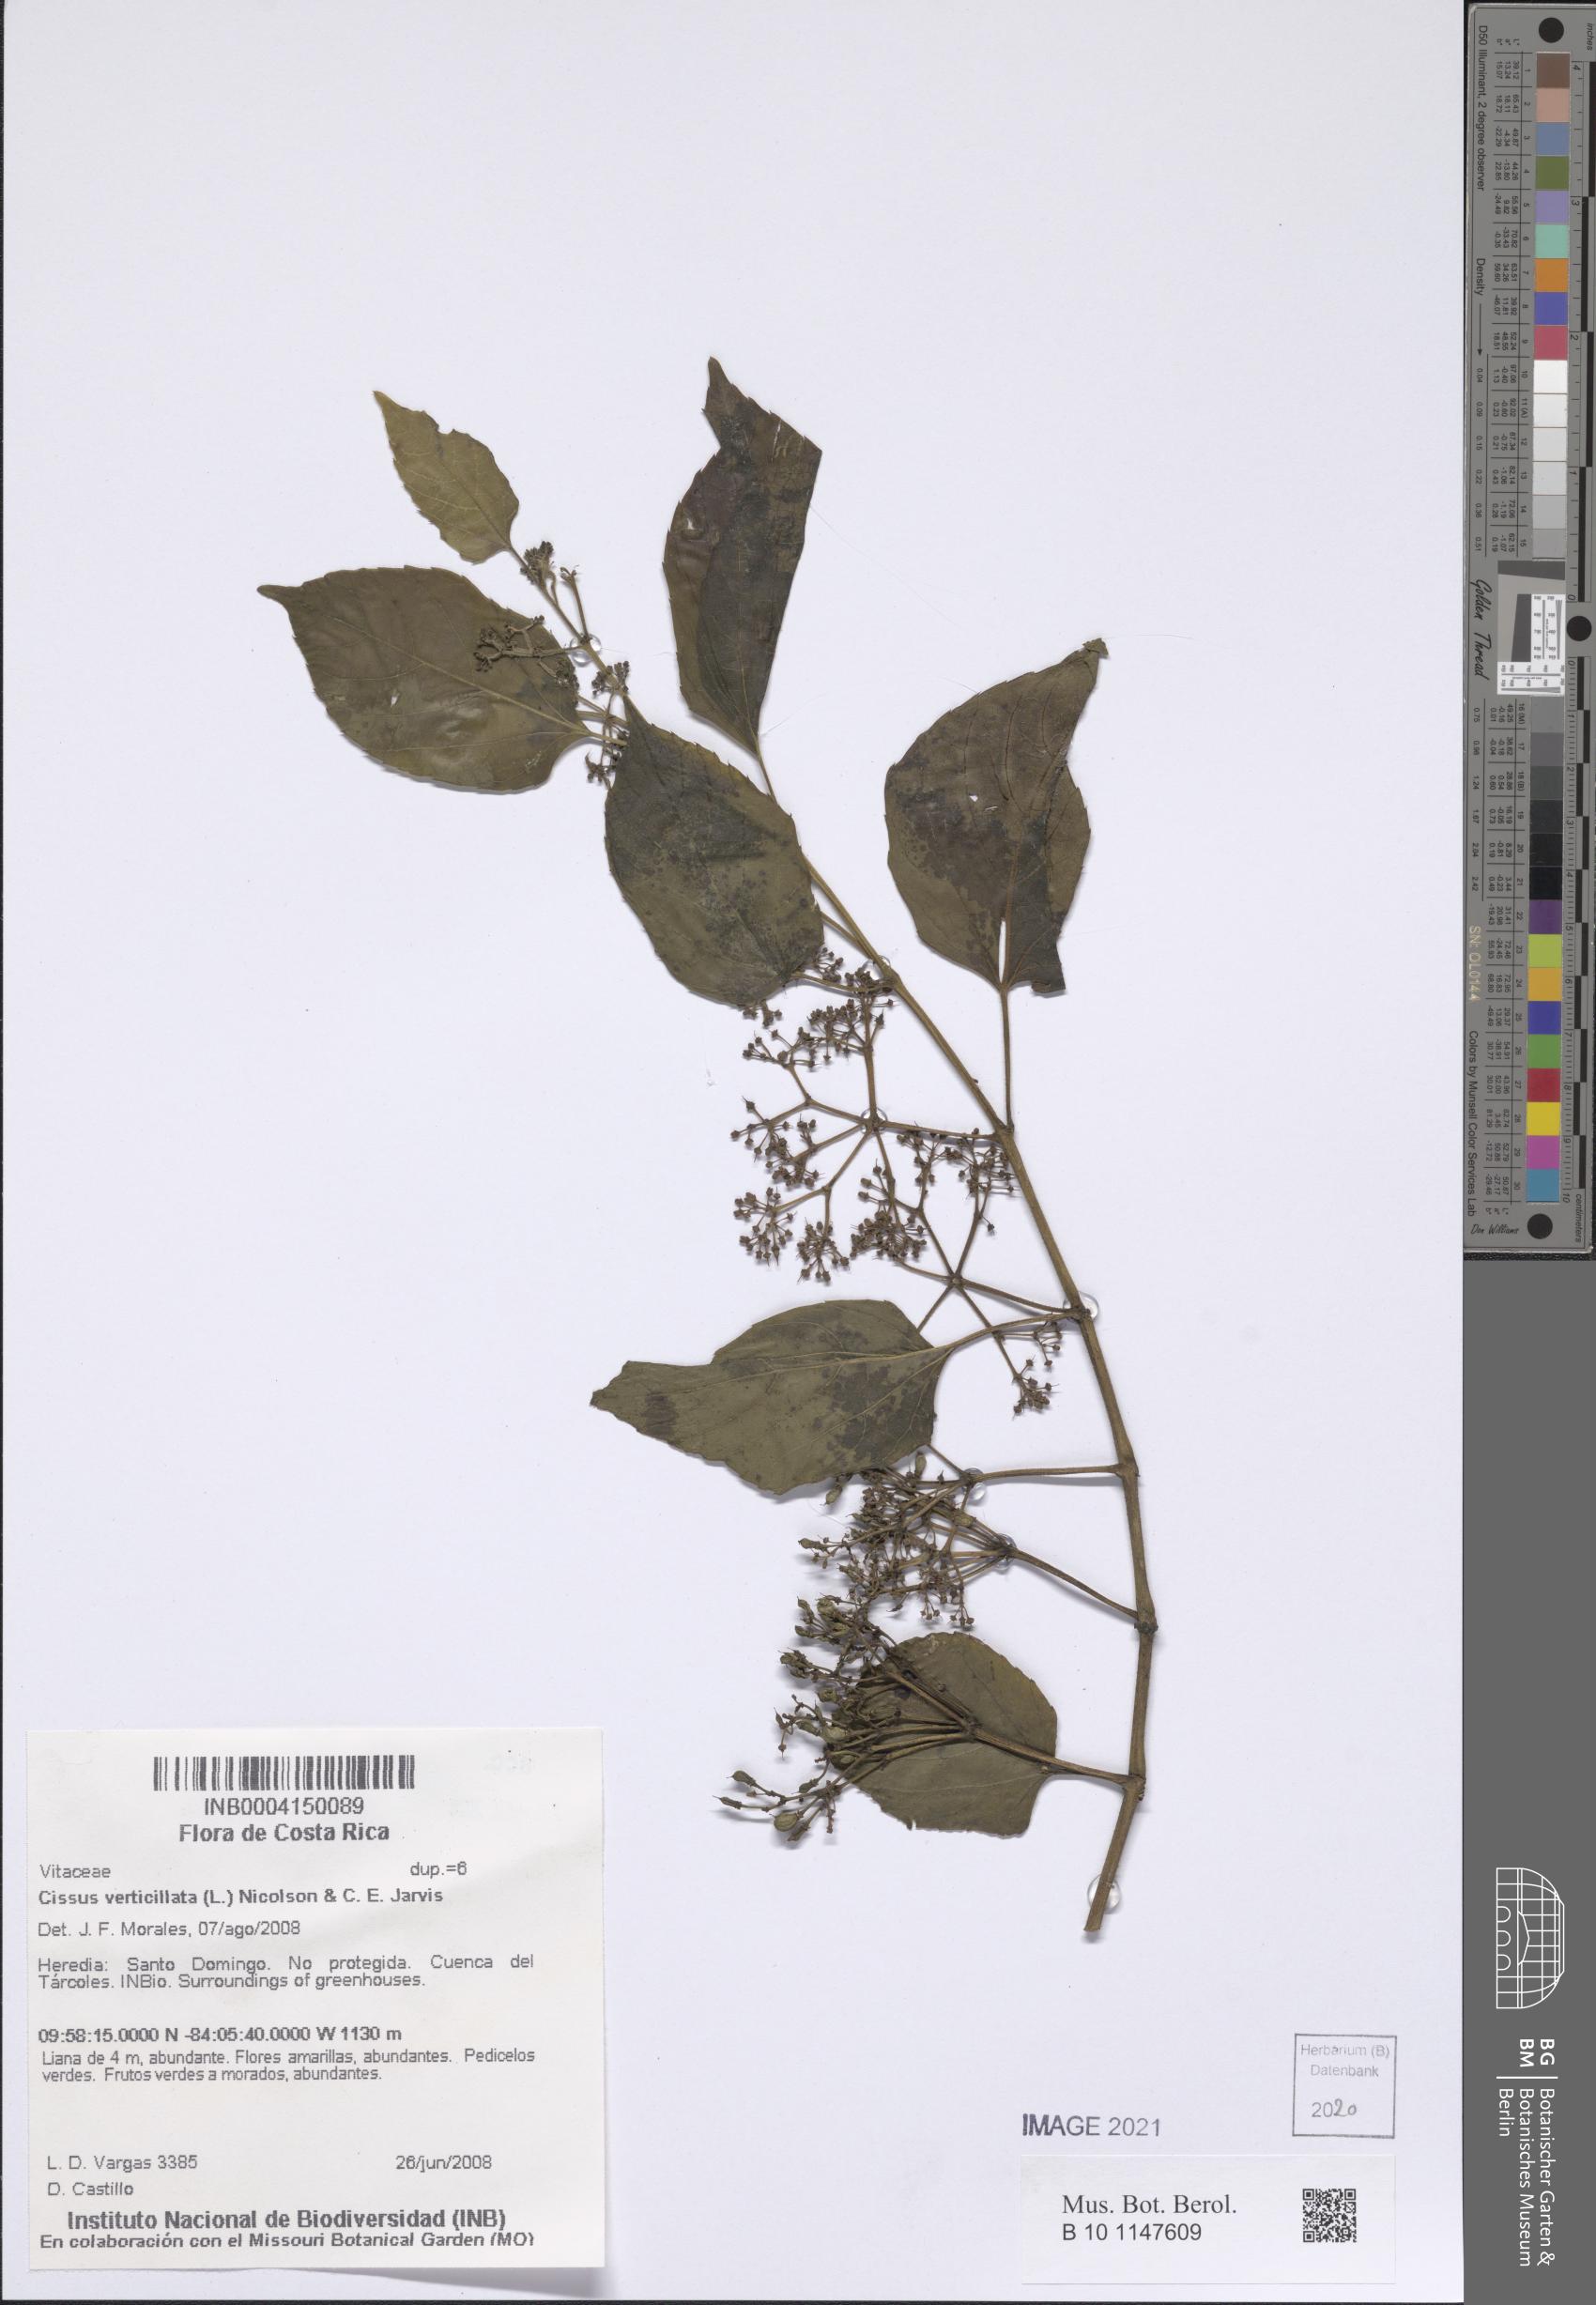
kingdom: Plantae
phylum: Tracheophyta
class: Magnoliopsida
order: Vitales
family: Vitaceae
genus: Cissus
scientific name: Cissus verticillata
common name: Princess vine
